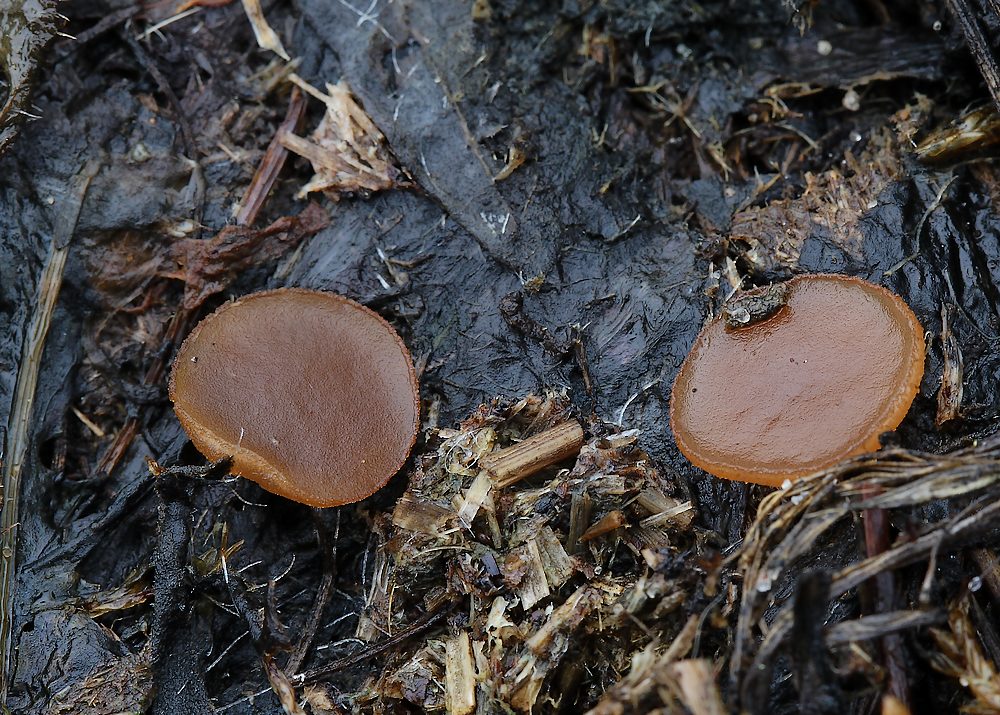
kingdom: Fungi
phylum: Ascomycota
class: Pezizomycetes
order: Pezizales
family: Pezizaceae
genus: Peziza
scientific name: Peziza fimeti
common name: møg-bægersvamp
